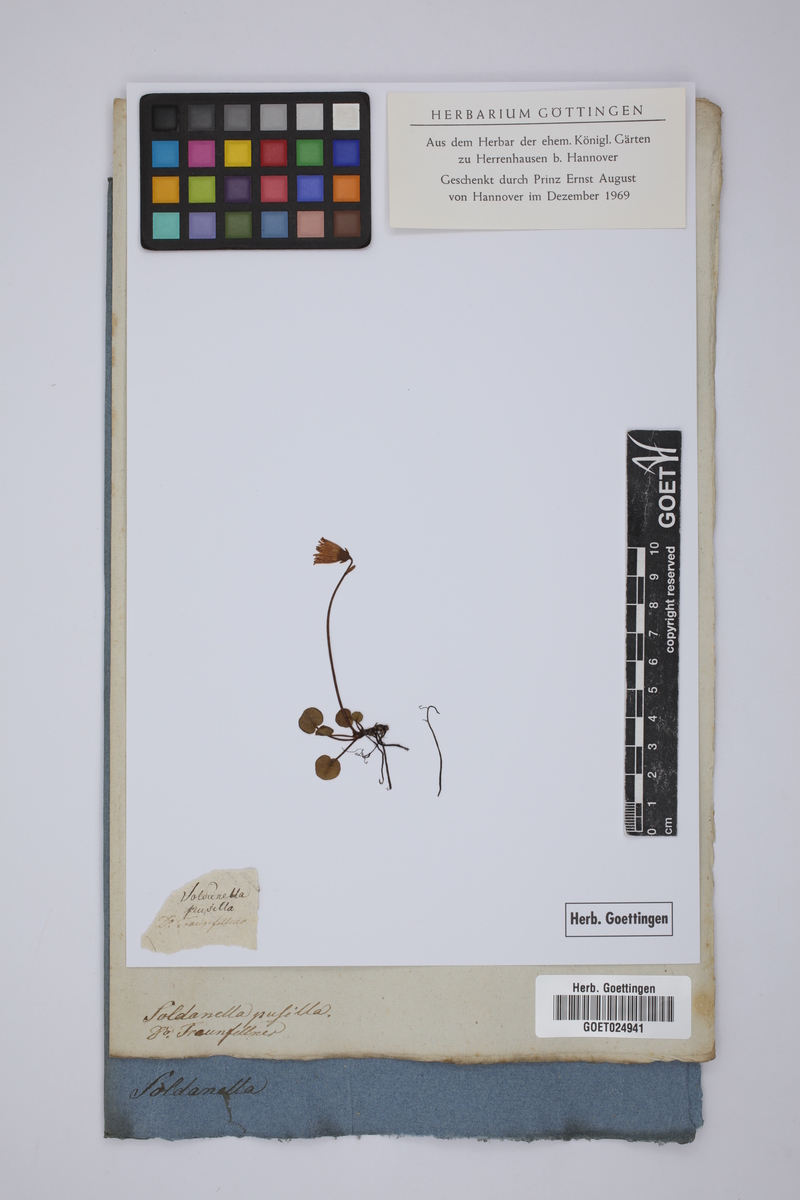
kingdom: Plantae
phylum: Tracheophyta
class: Magnoliopsida
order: Ericales
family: Primulaceae
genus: Soldanella
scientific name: Soldanella pusilla
